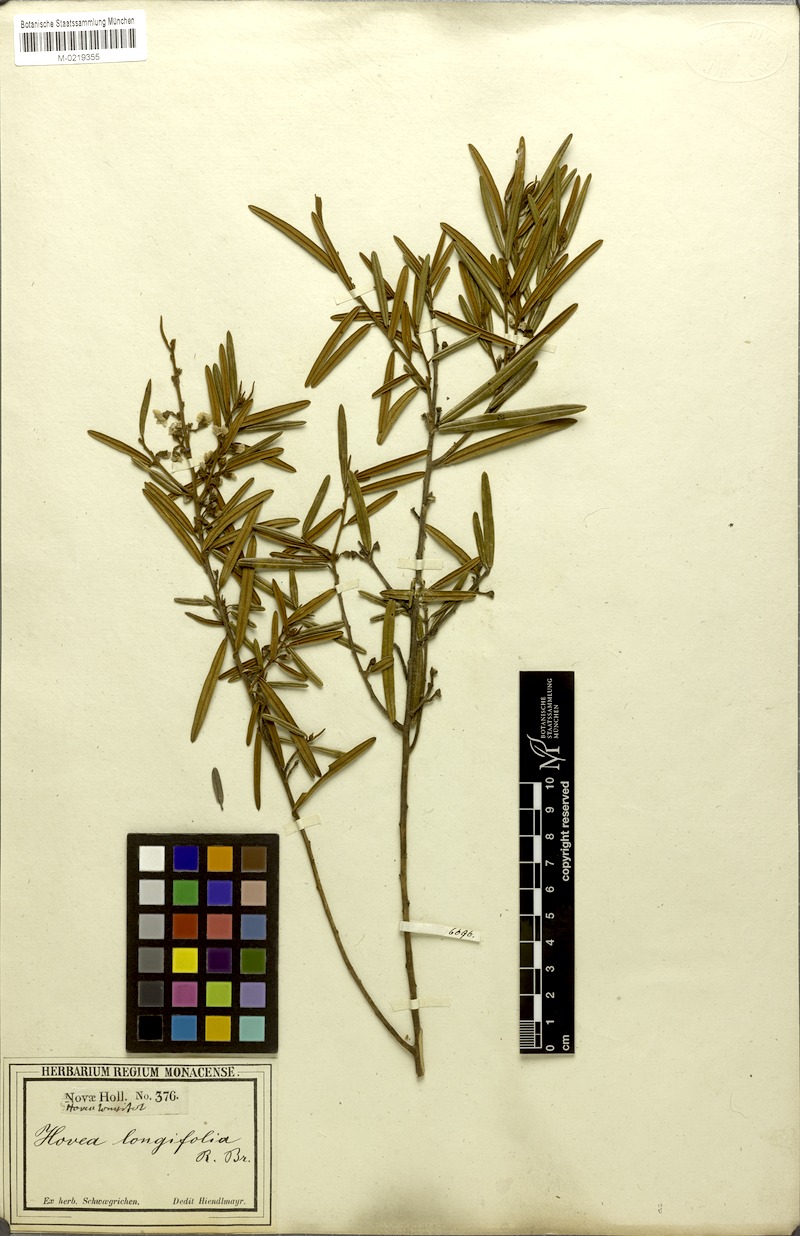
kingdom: Plantae
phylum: Tracheophyta
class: Magnoliopsida
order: Fabales
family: Fabaceae
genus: Hovea
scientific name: Hovea longifolia
